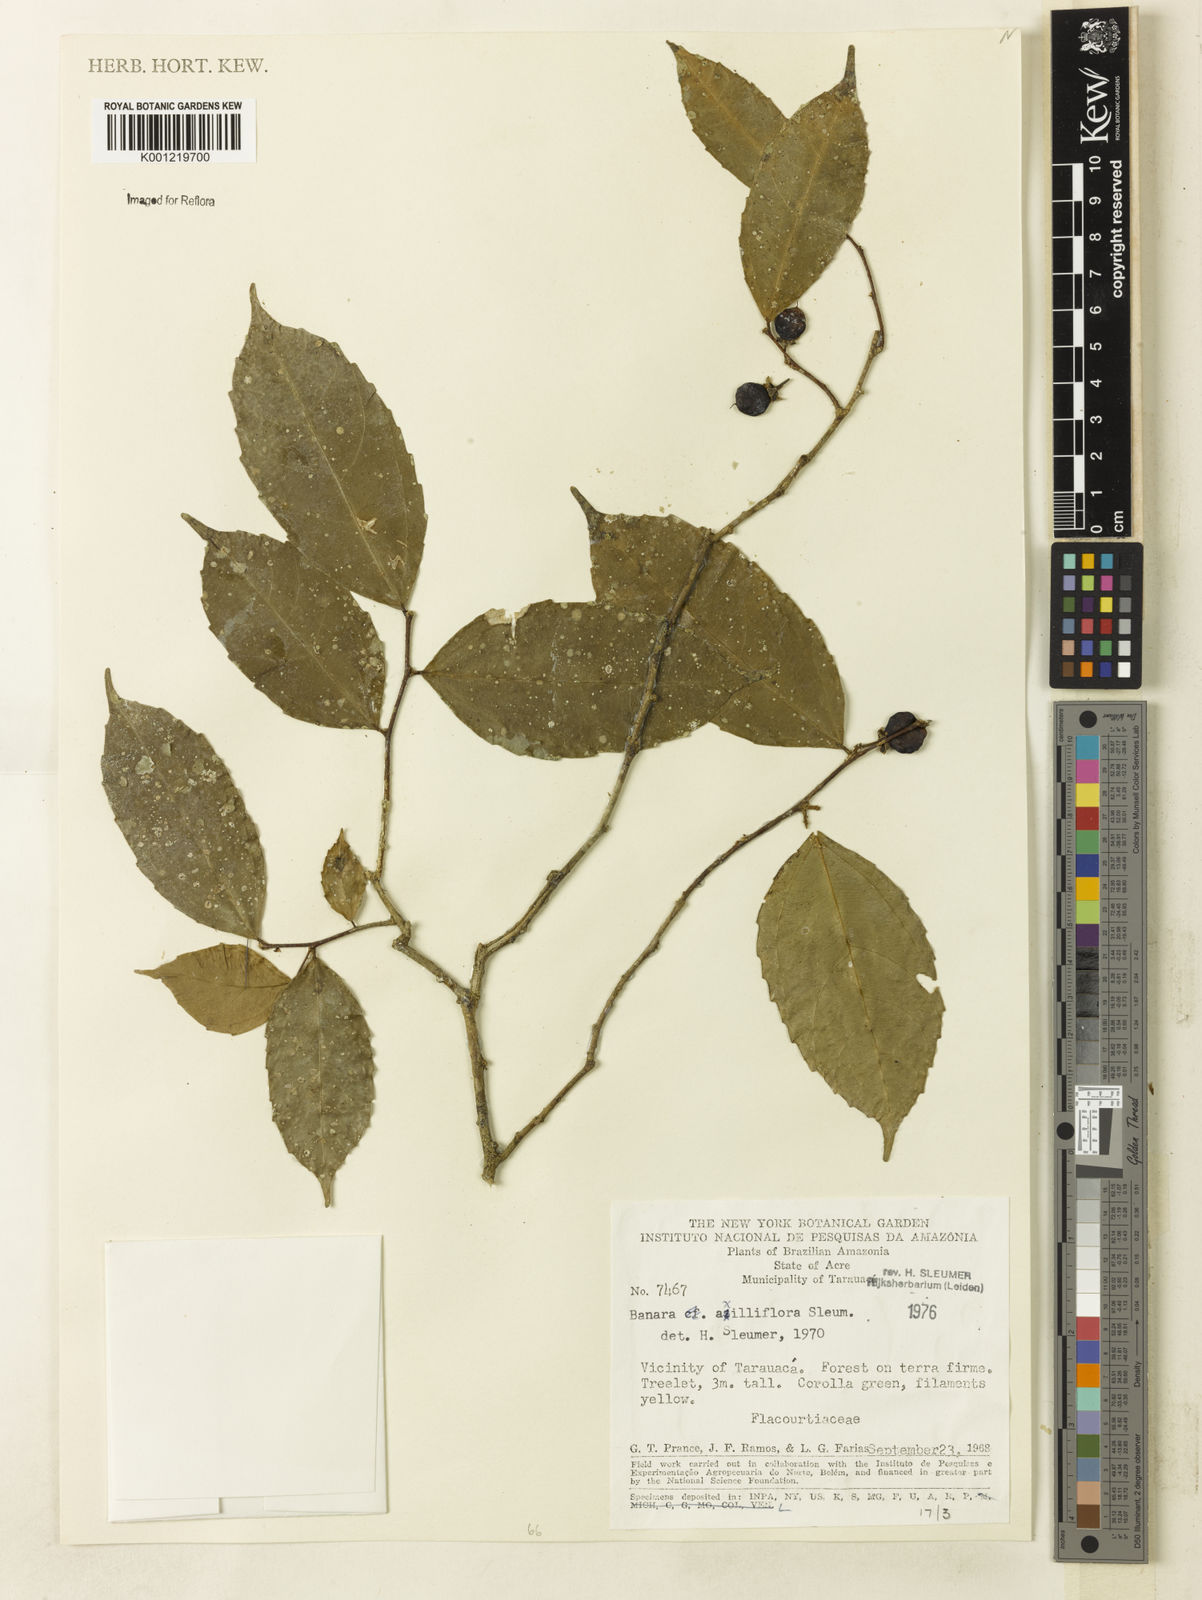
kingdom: Plantae
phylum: Tracheophyta
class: Magnoliopsida
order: Malpighiales
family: Salicaceae
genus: Banara
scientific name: Banara axilliflora
